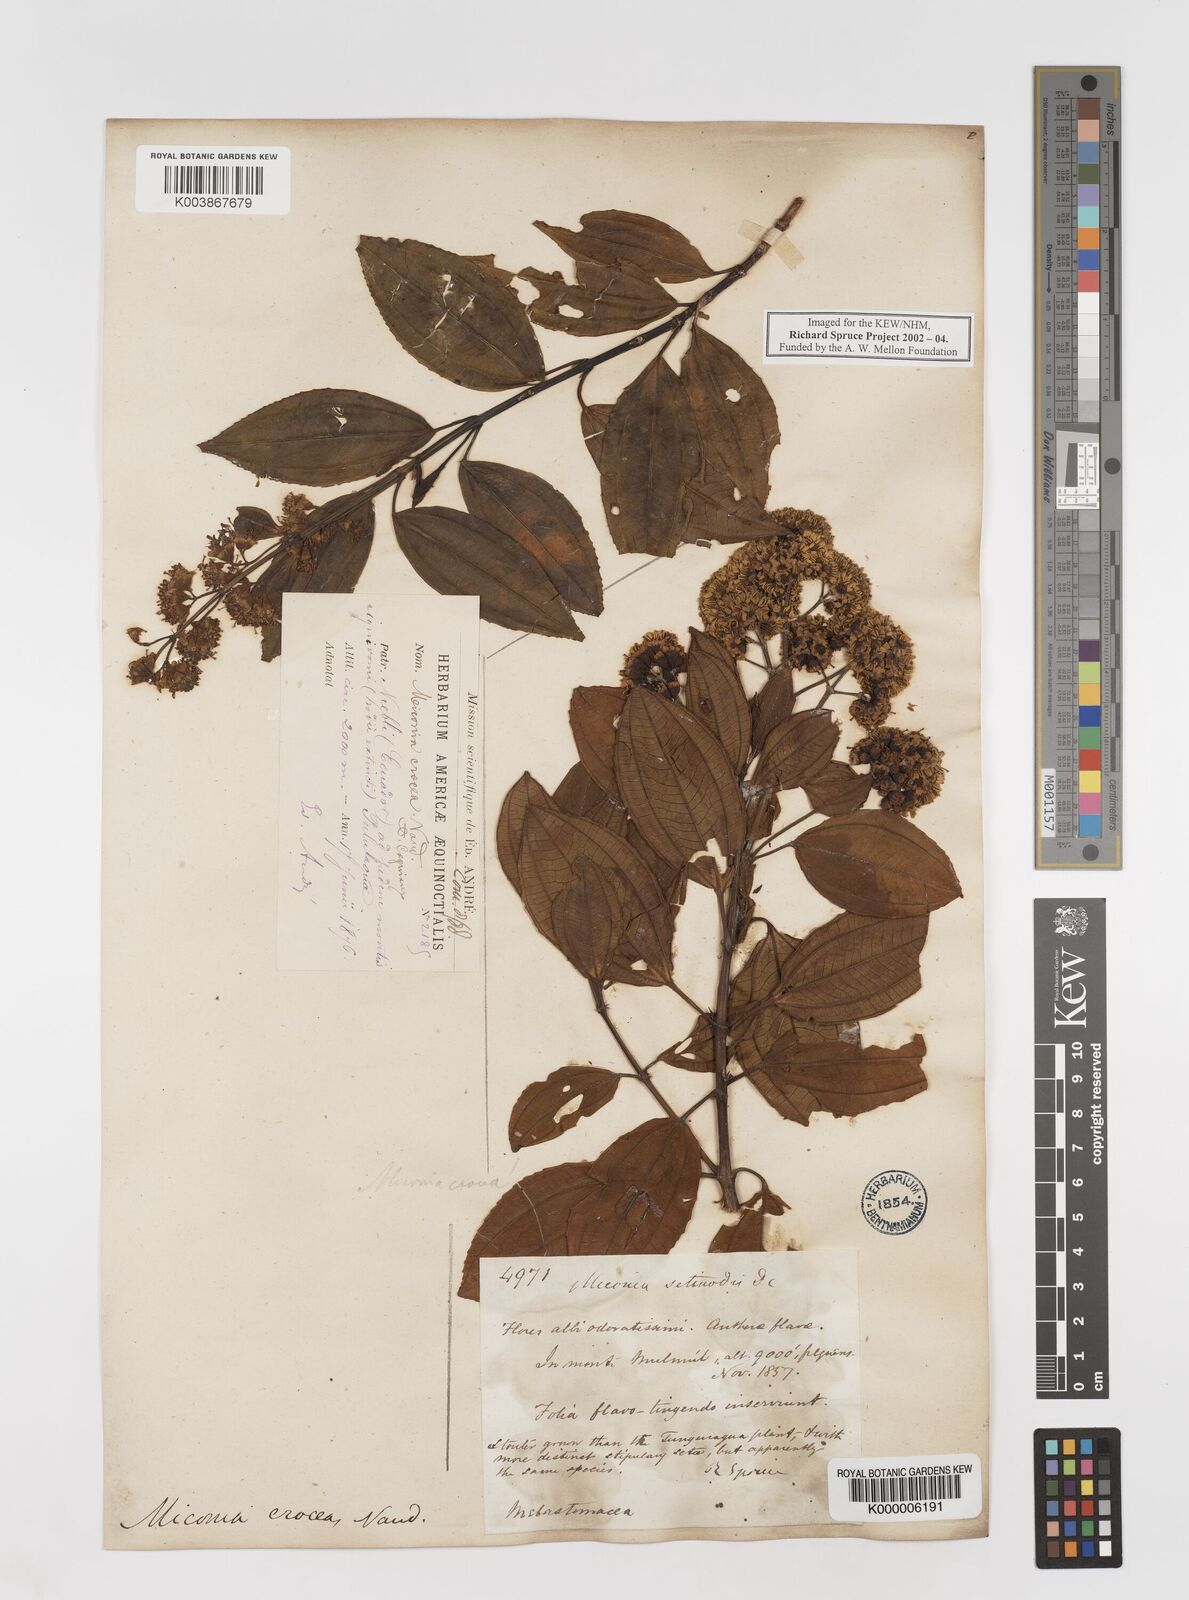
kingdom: Plantae
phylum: Tracheophyta
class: Magnoliopsida
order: Myrtales
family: Melastomataceae
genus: Miconia
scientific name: Miconia crocea
